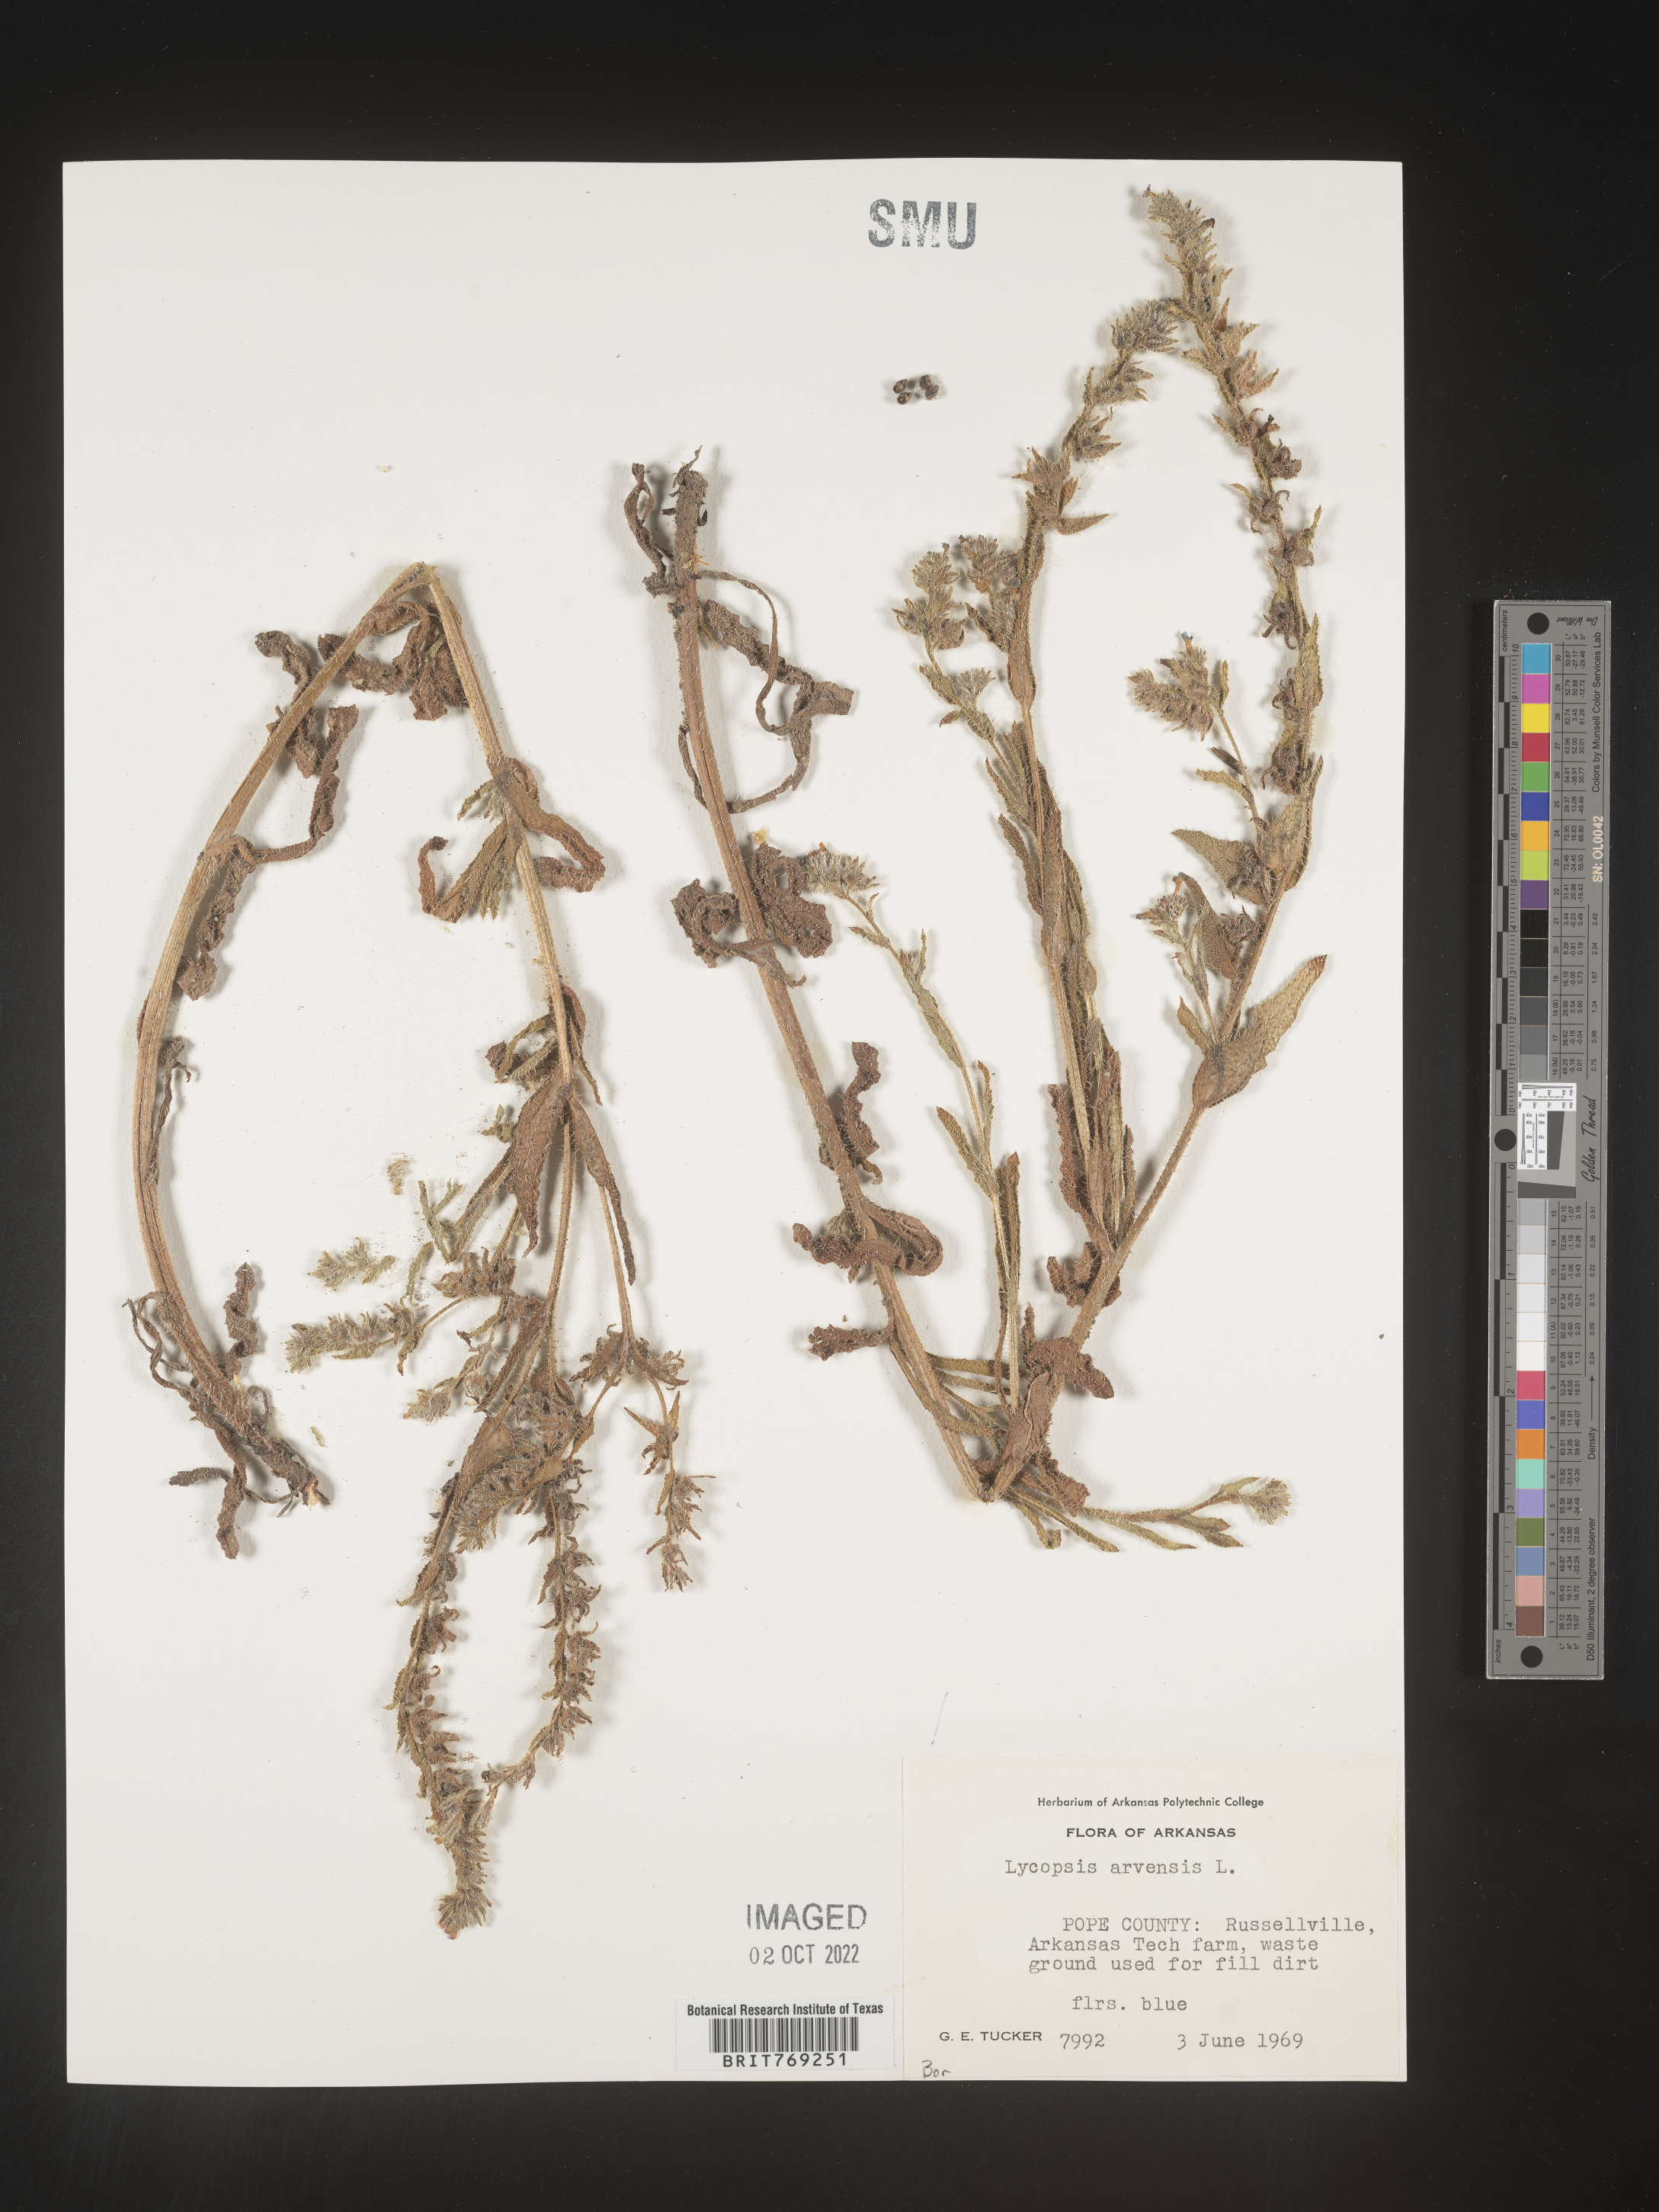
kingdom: Plantae
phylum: Tracheophyta
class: Magnoliopsida
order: Boraginales
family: Boraginaceae
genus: Lycopsis
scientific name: Lycopsis
